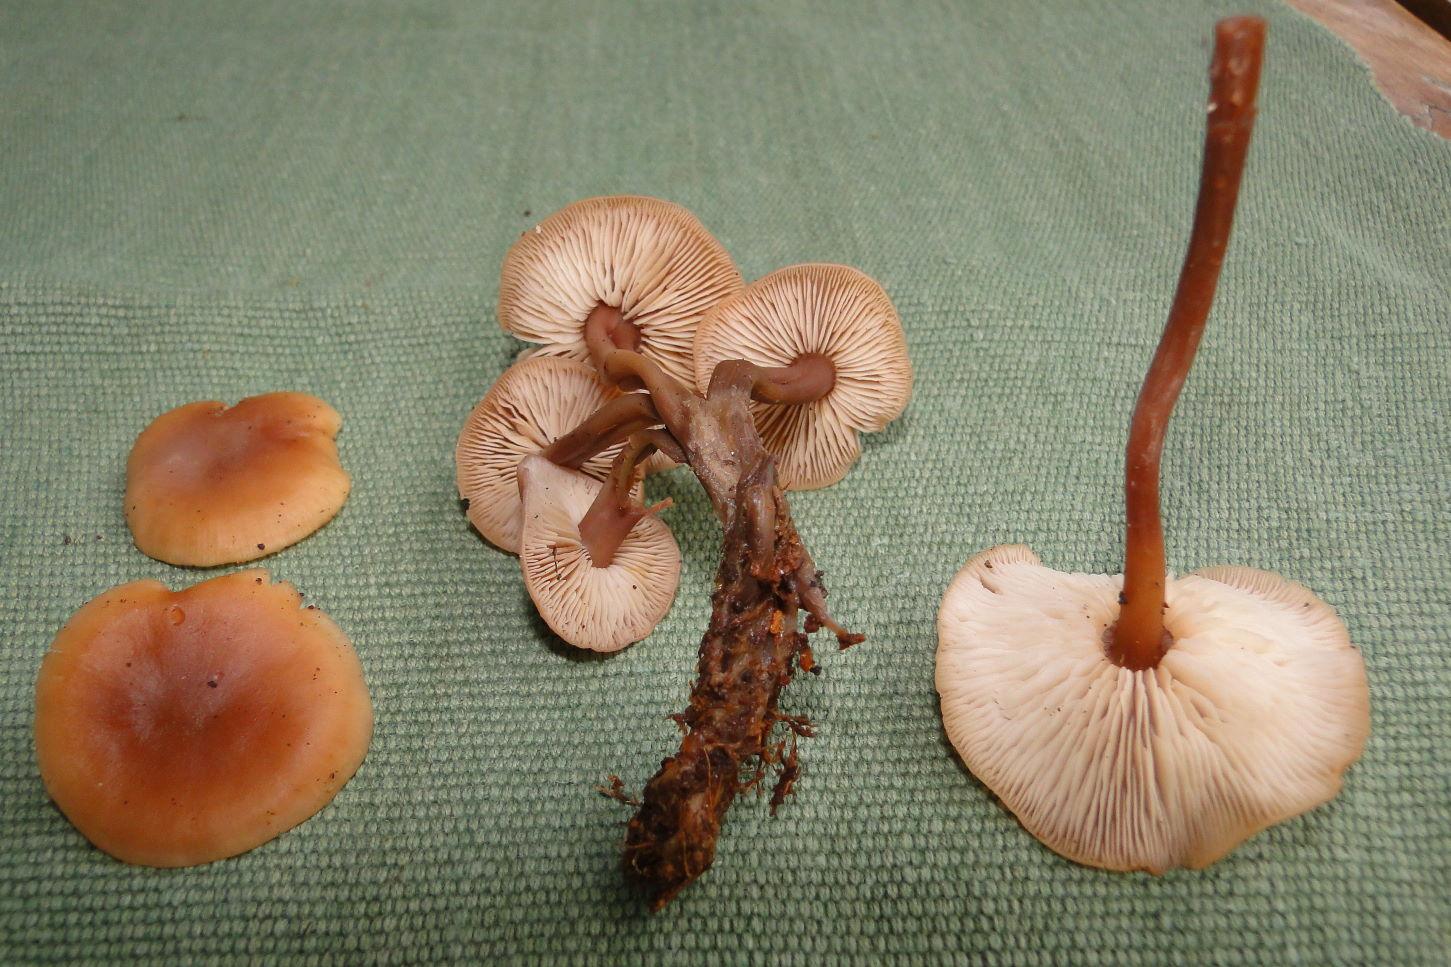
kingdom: Fungi
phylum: Basidiomycota
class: Agaricomycetes
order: Agaricales
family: Omphalotaceae
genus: Connopus
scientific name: Connopus acervatus
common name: tue-fladhat
